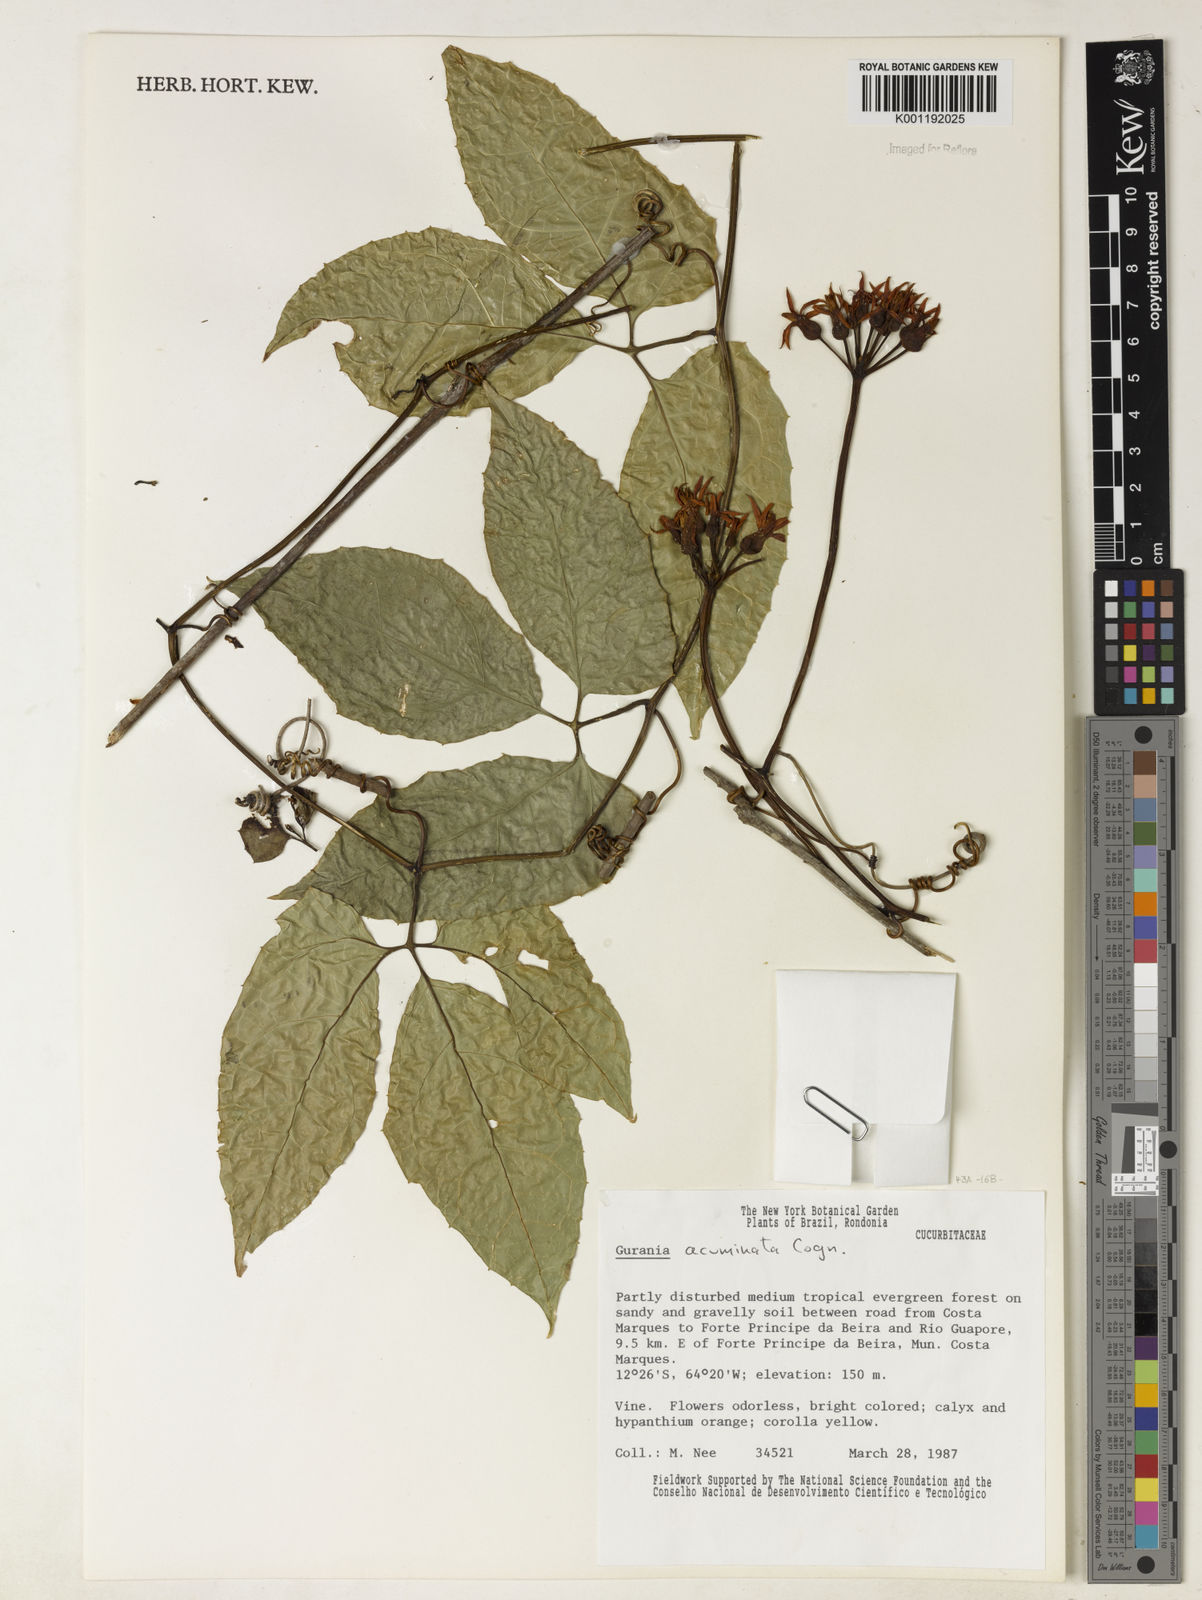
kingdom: Plantae
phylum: Tracheophyta
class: Magnoliopsida
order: Cucurbitales
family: Cucurbitaceae
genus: Gurania
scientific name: Gurania acuminata
